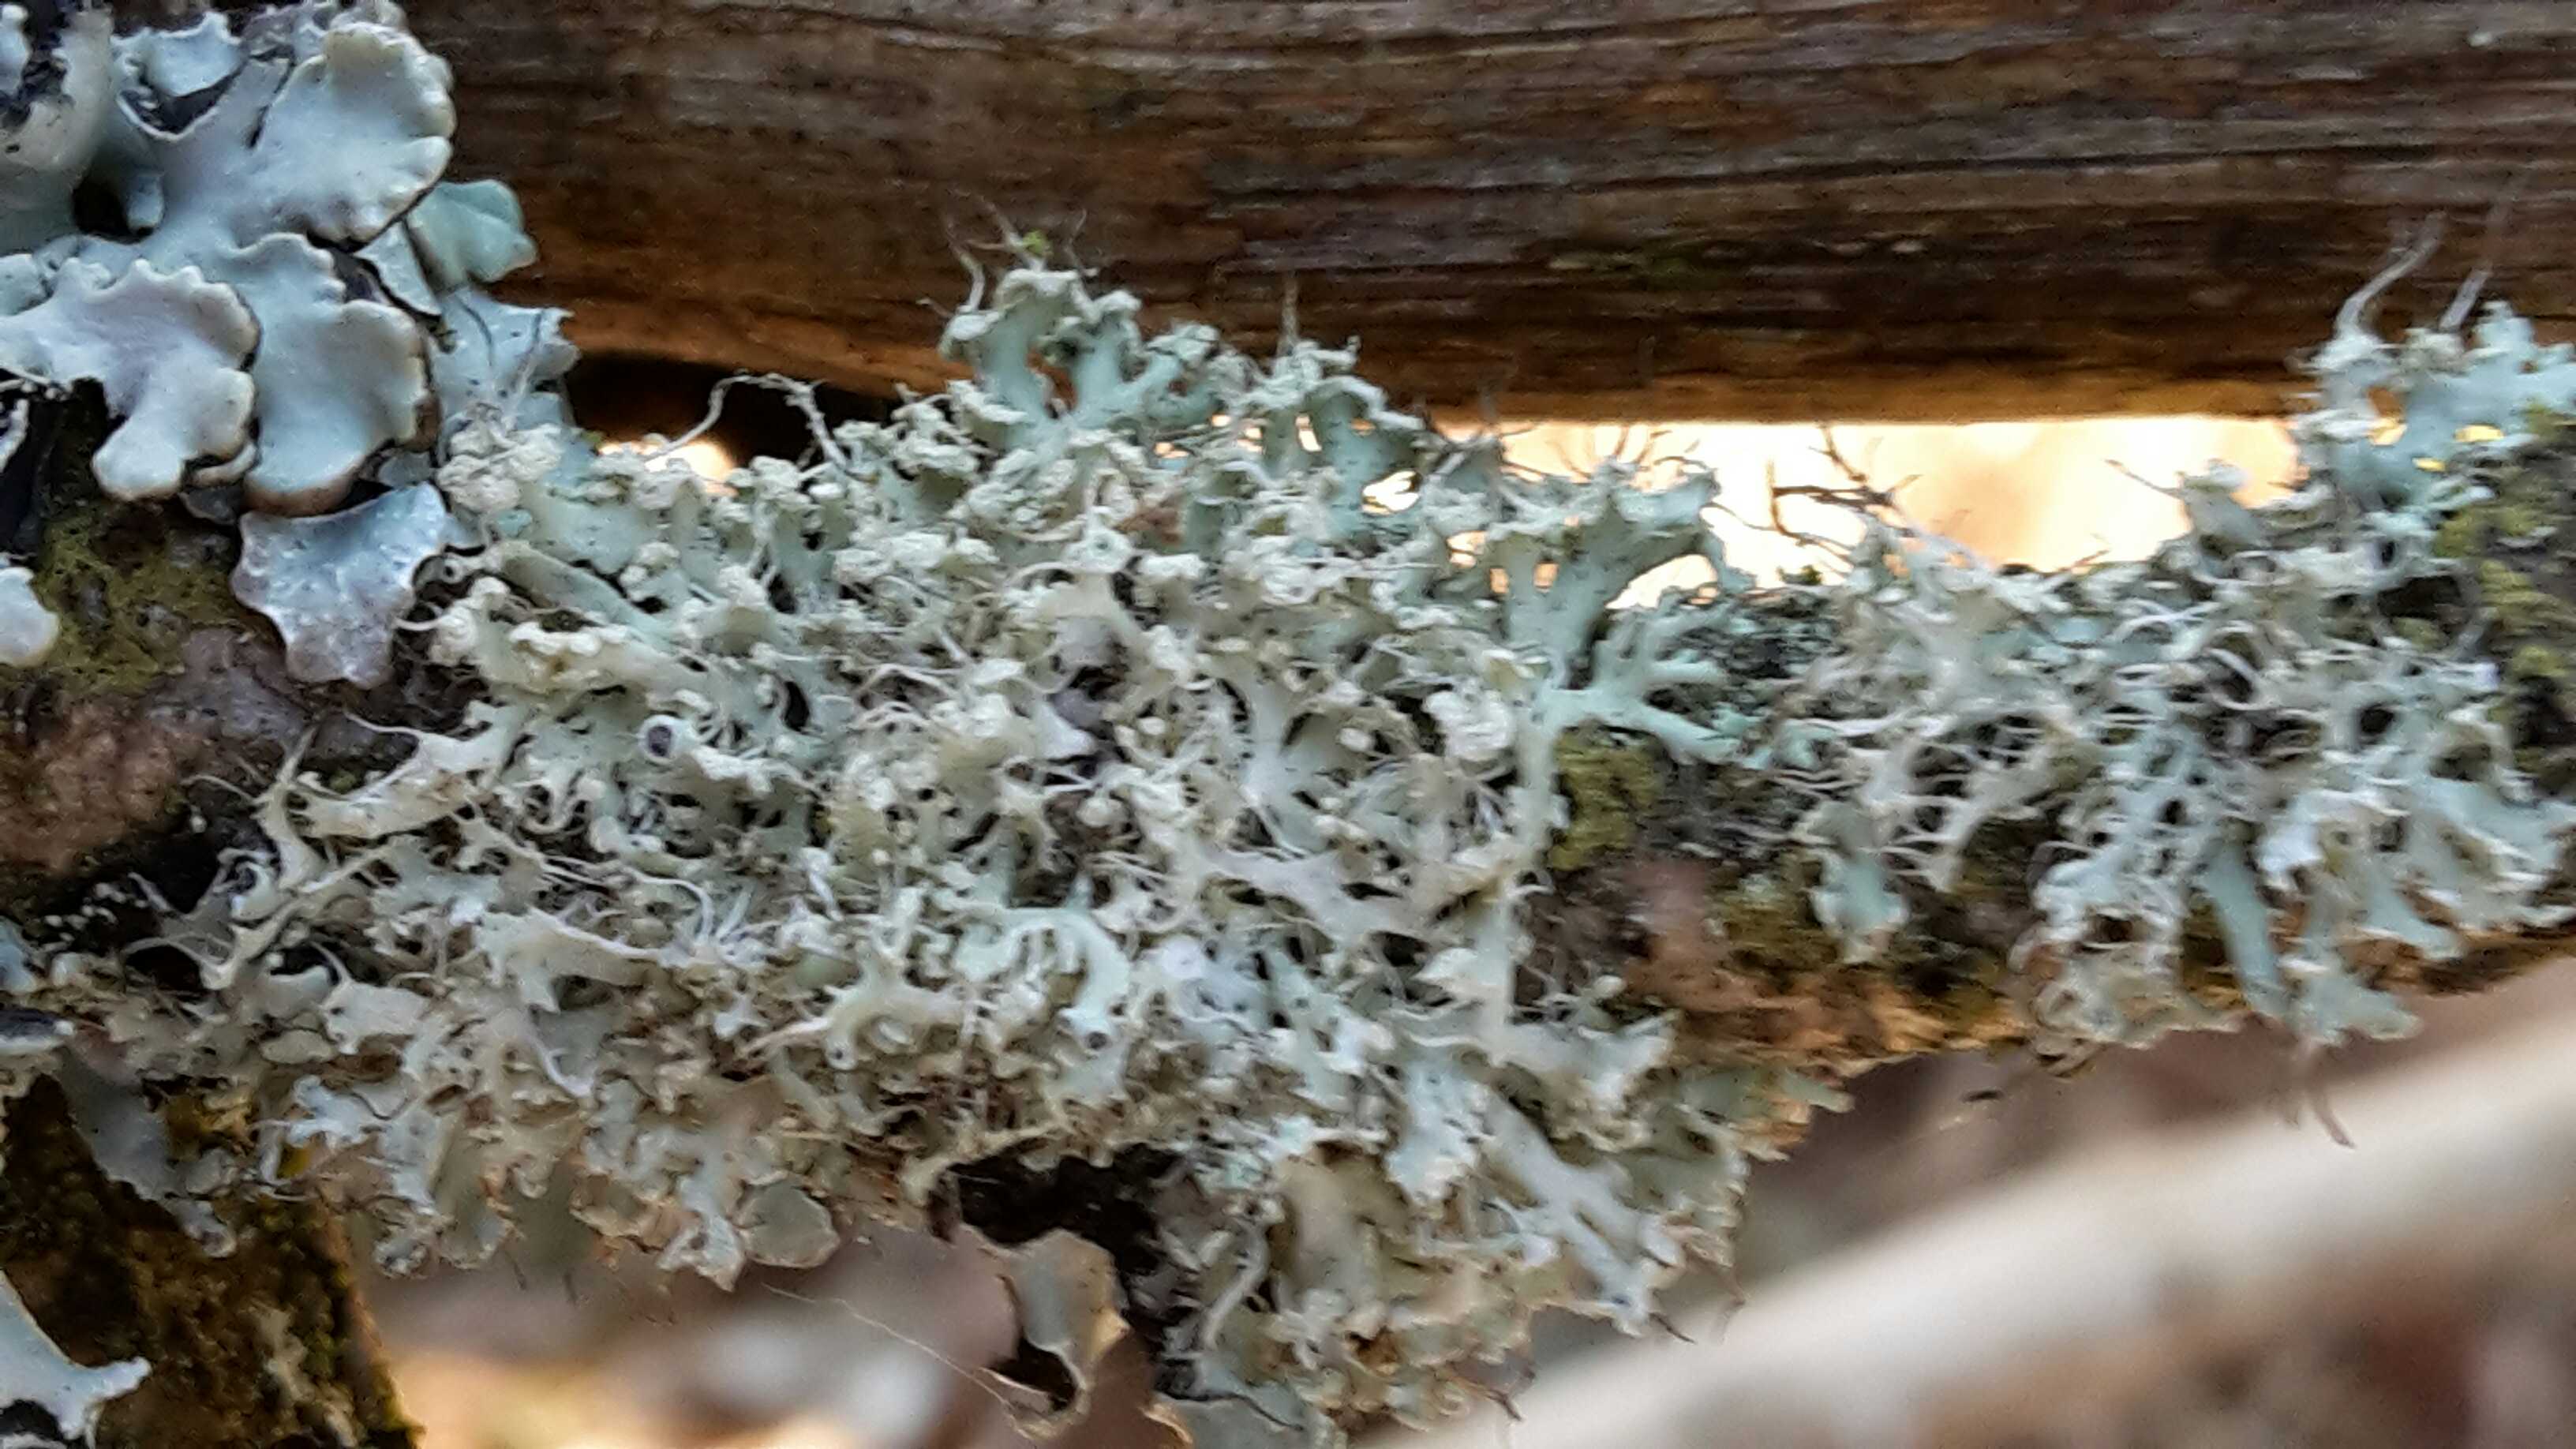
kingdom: Fungi
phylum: Ascomycota
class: Lecanoromycetes
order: Caliciales
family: Physciaceae
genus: Physcia
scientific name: Physcia tenella
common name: spæd rosetlav
